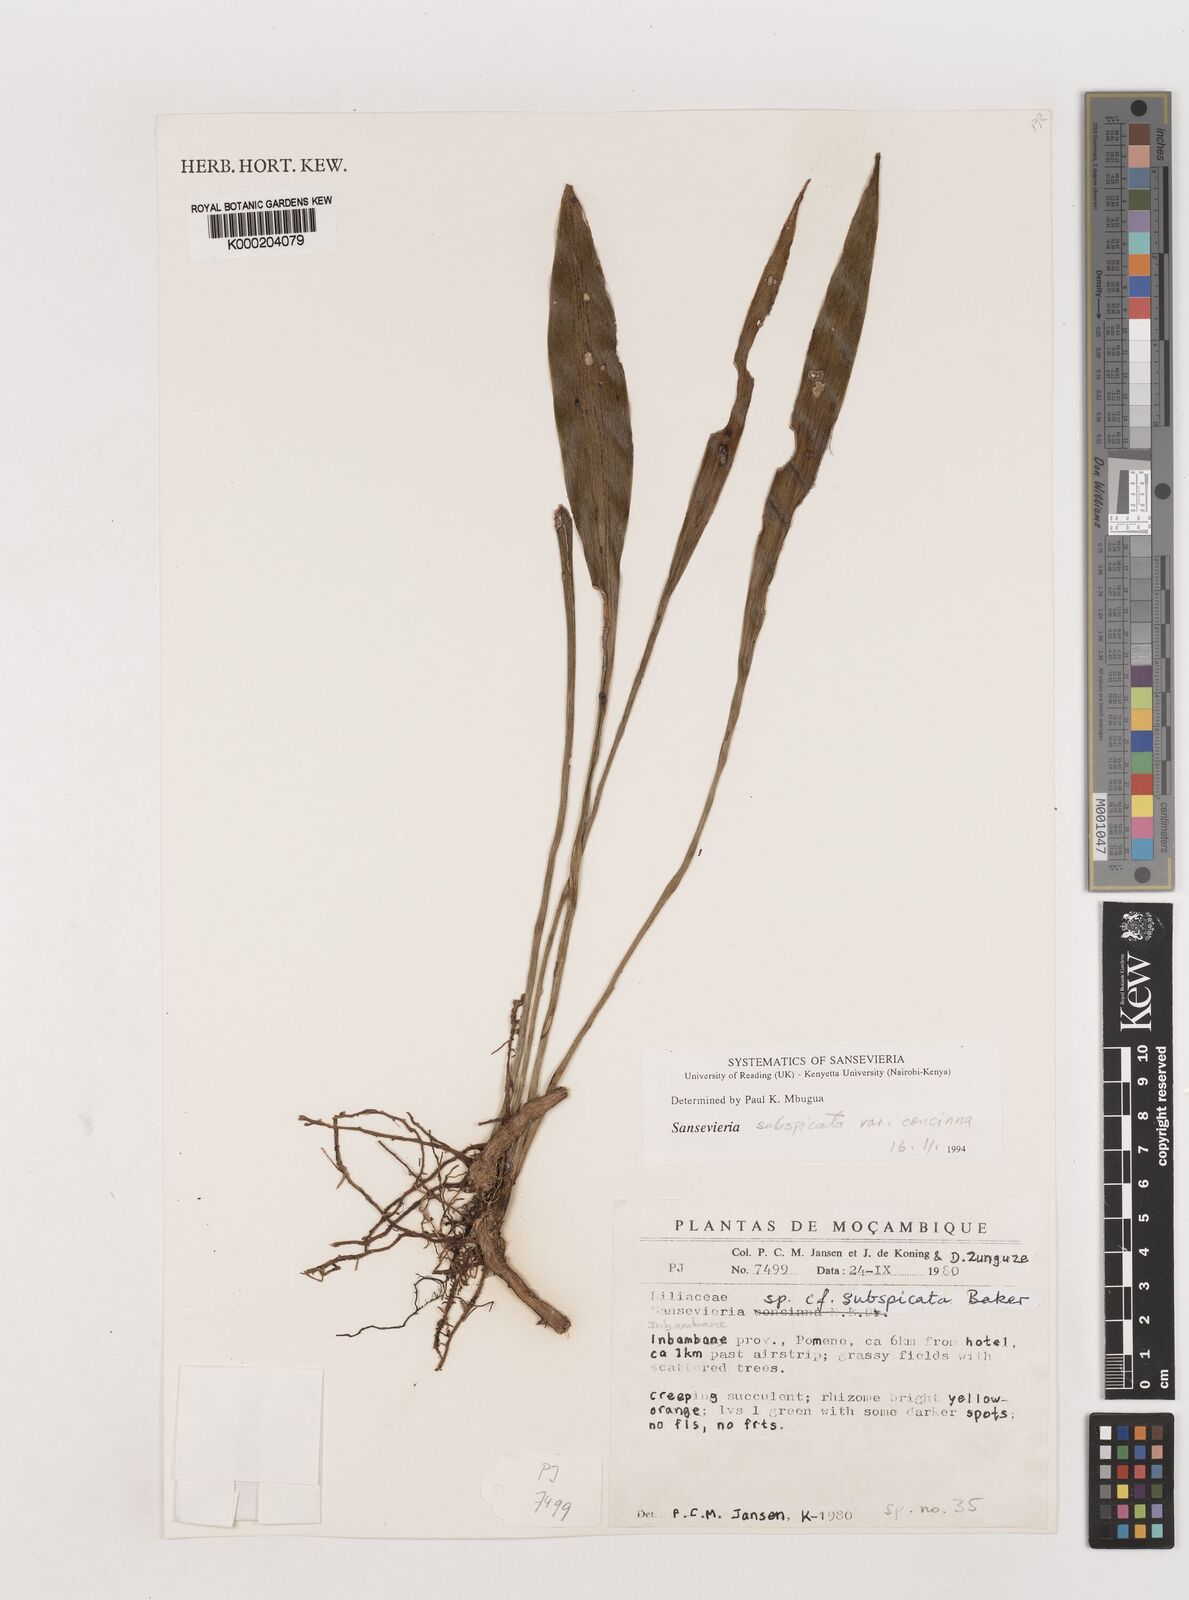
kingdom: Plantae
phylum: Tracheophyta
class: Liliopsida
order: Asparagales
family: Asparagaceae
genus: Dracaena
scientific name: Dracaena spathulata
